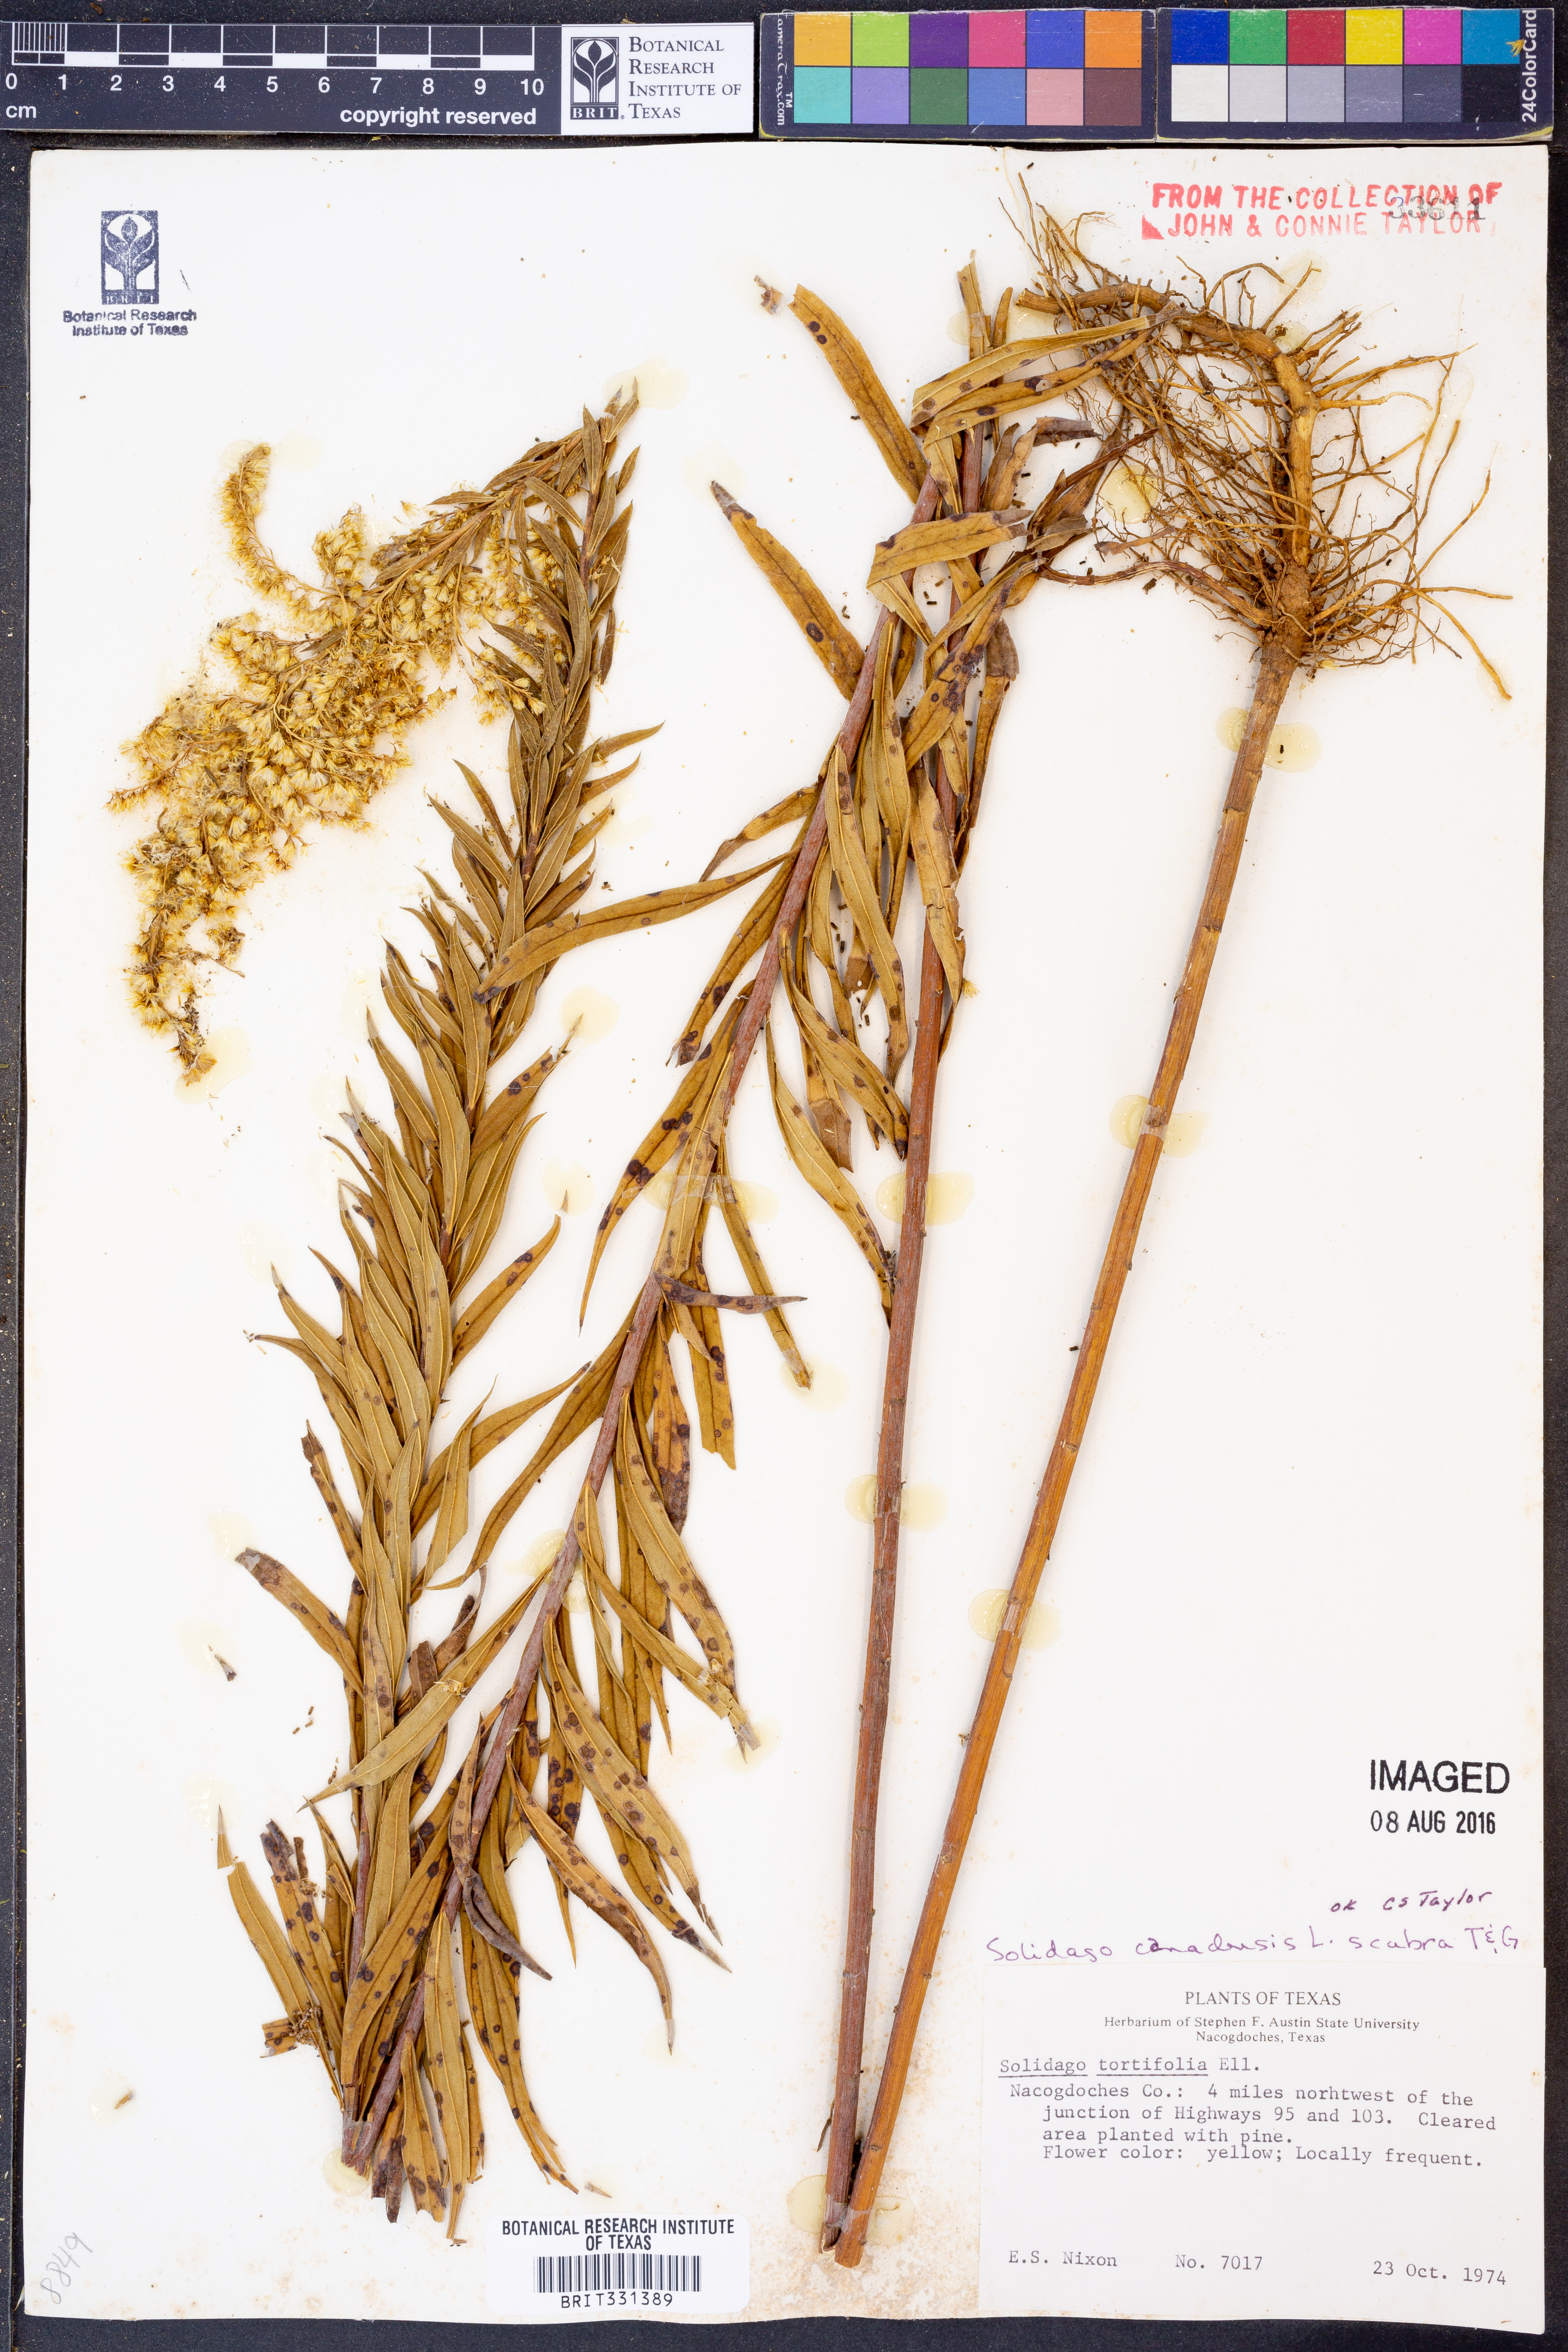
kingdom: Plantae
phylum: Tracheophyta
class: Magnoliopsida
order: Asterales
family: Asteraceae
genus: Solidago
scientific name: Solidago altissima
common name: Late goldenrod
